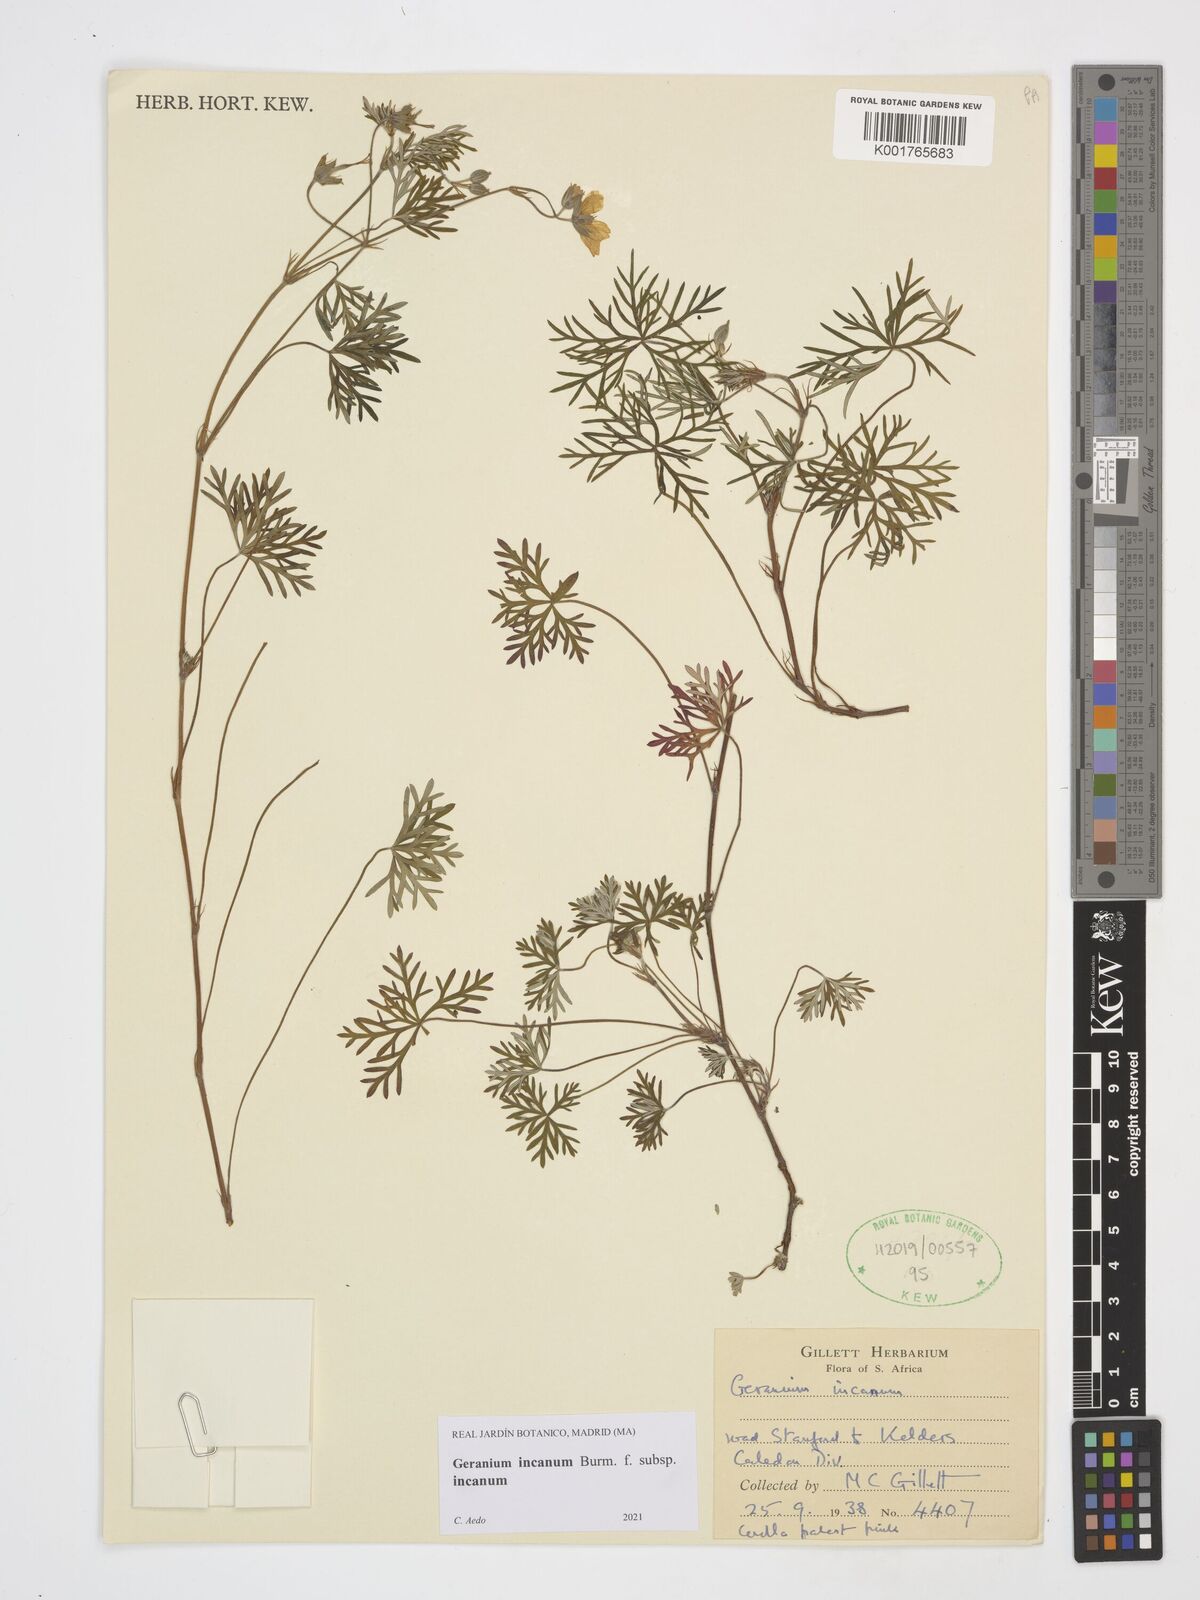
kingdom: Plantae
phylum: Tracheophyta
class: Magnoliopsida
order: Geraniales
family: Geraniaceae
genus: Geranium
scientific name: Geranium incanum
